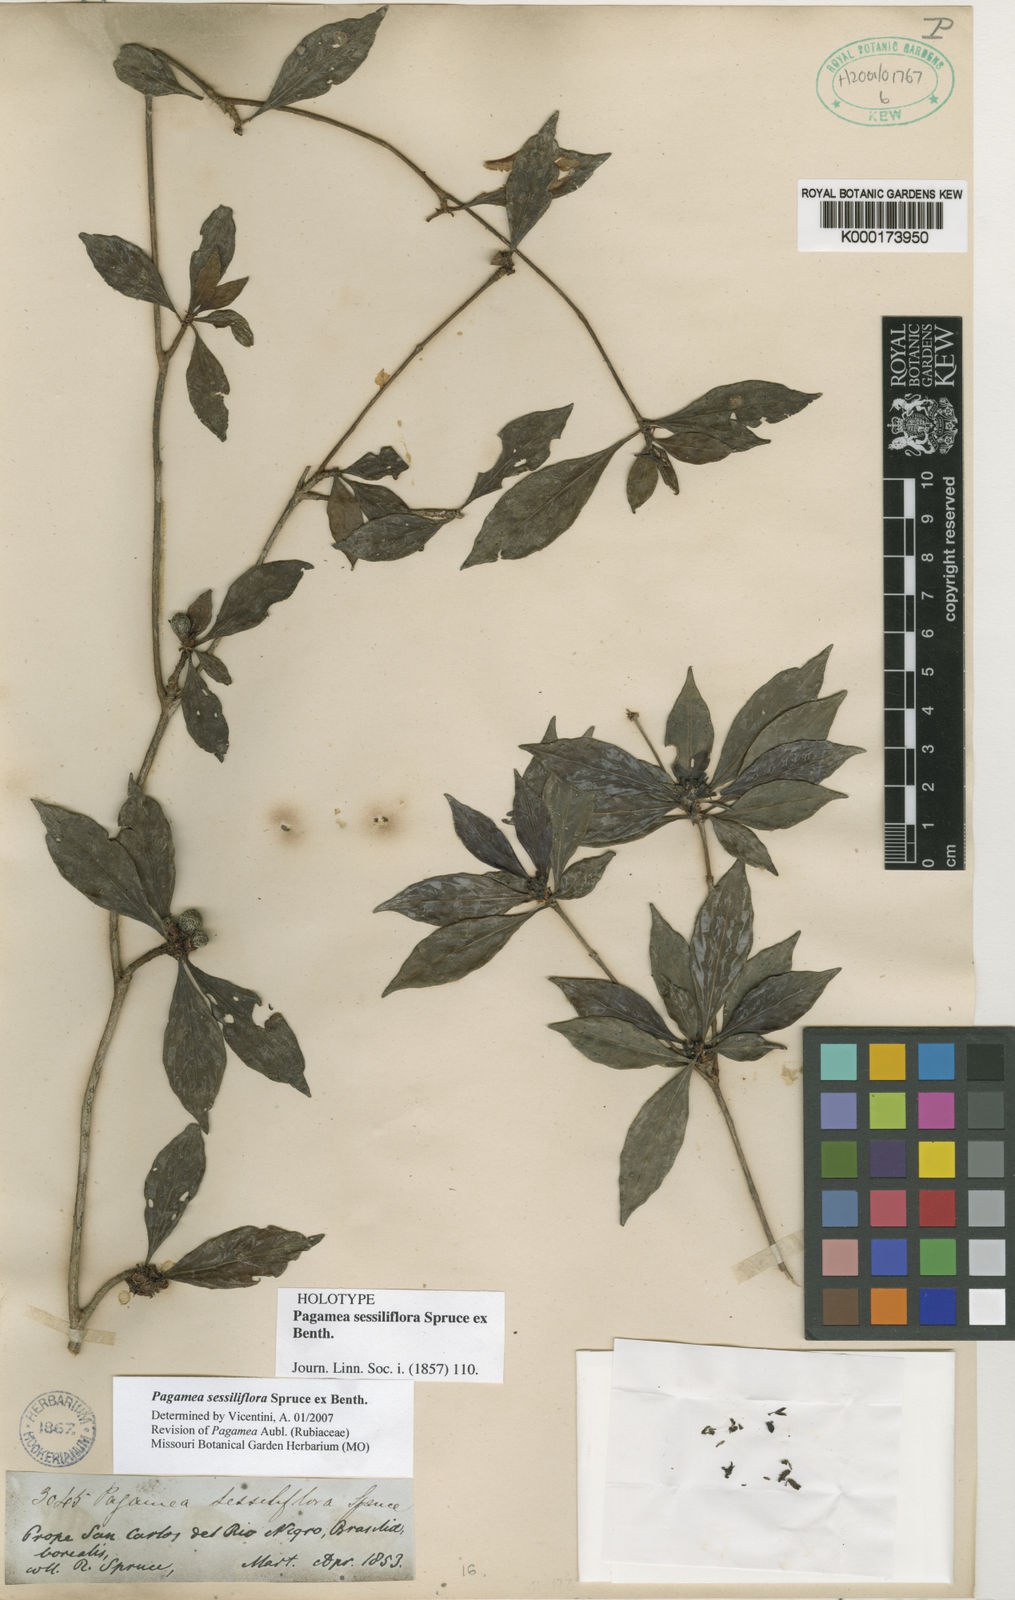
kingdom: Plantae
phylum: Tracheophyta
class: Magnoliopsida
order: Gentianales
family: Rubiaceae
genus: Pagamea
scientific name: Pagamea sessiliflora
